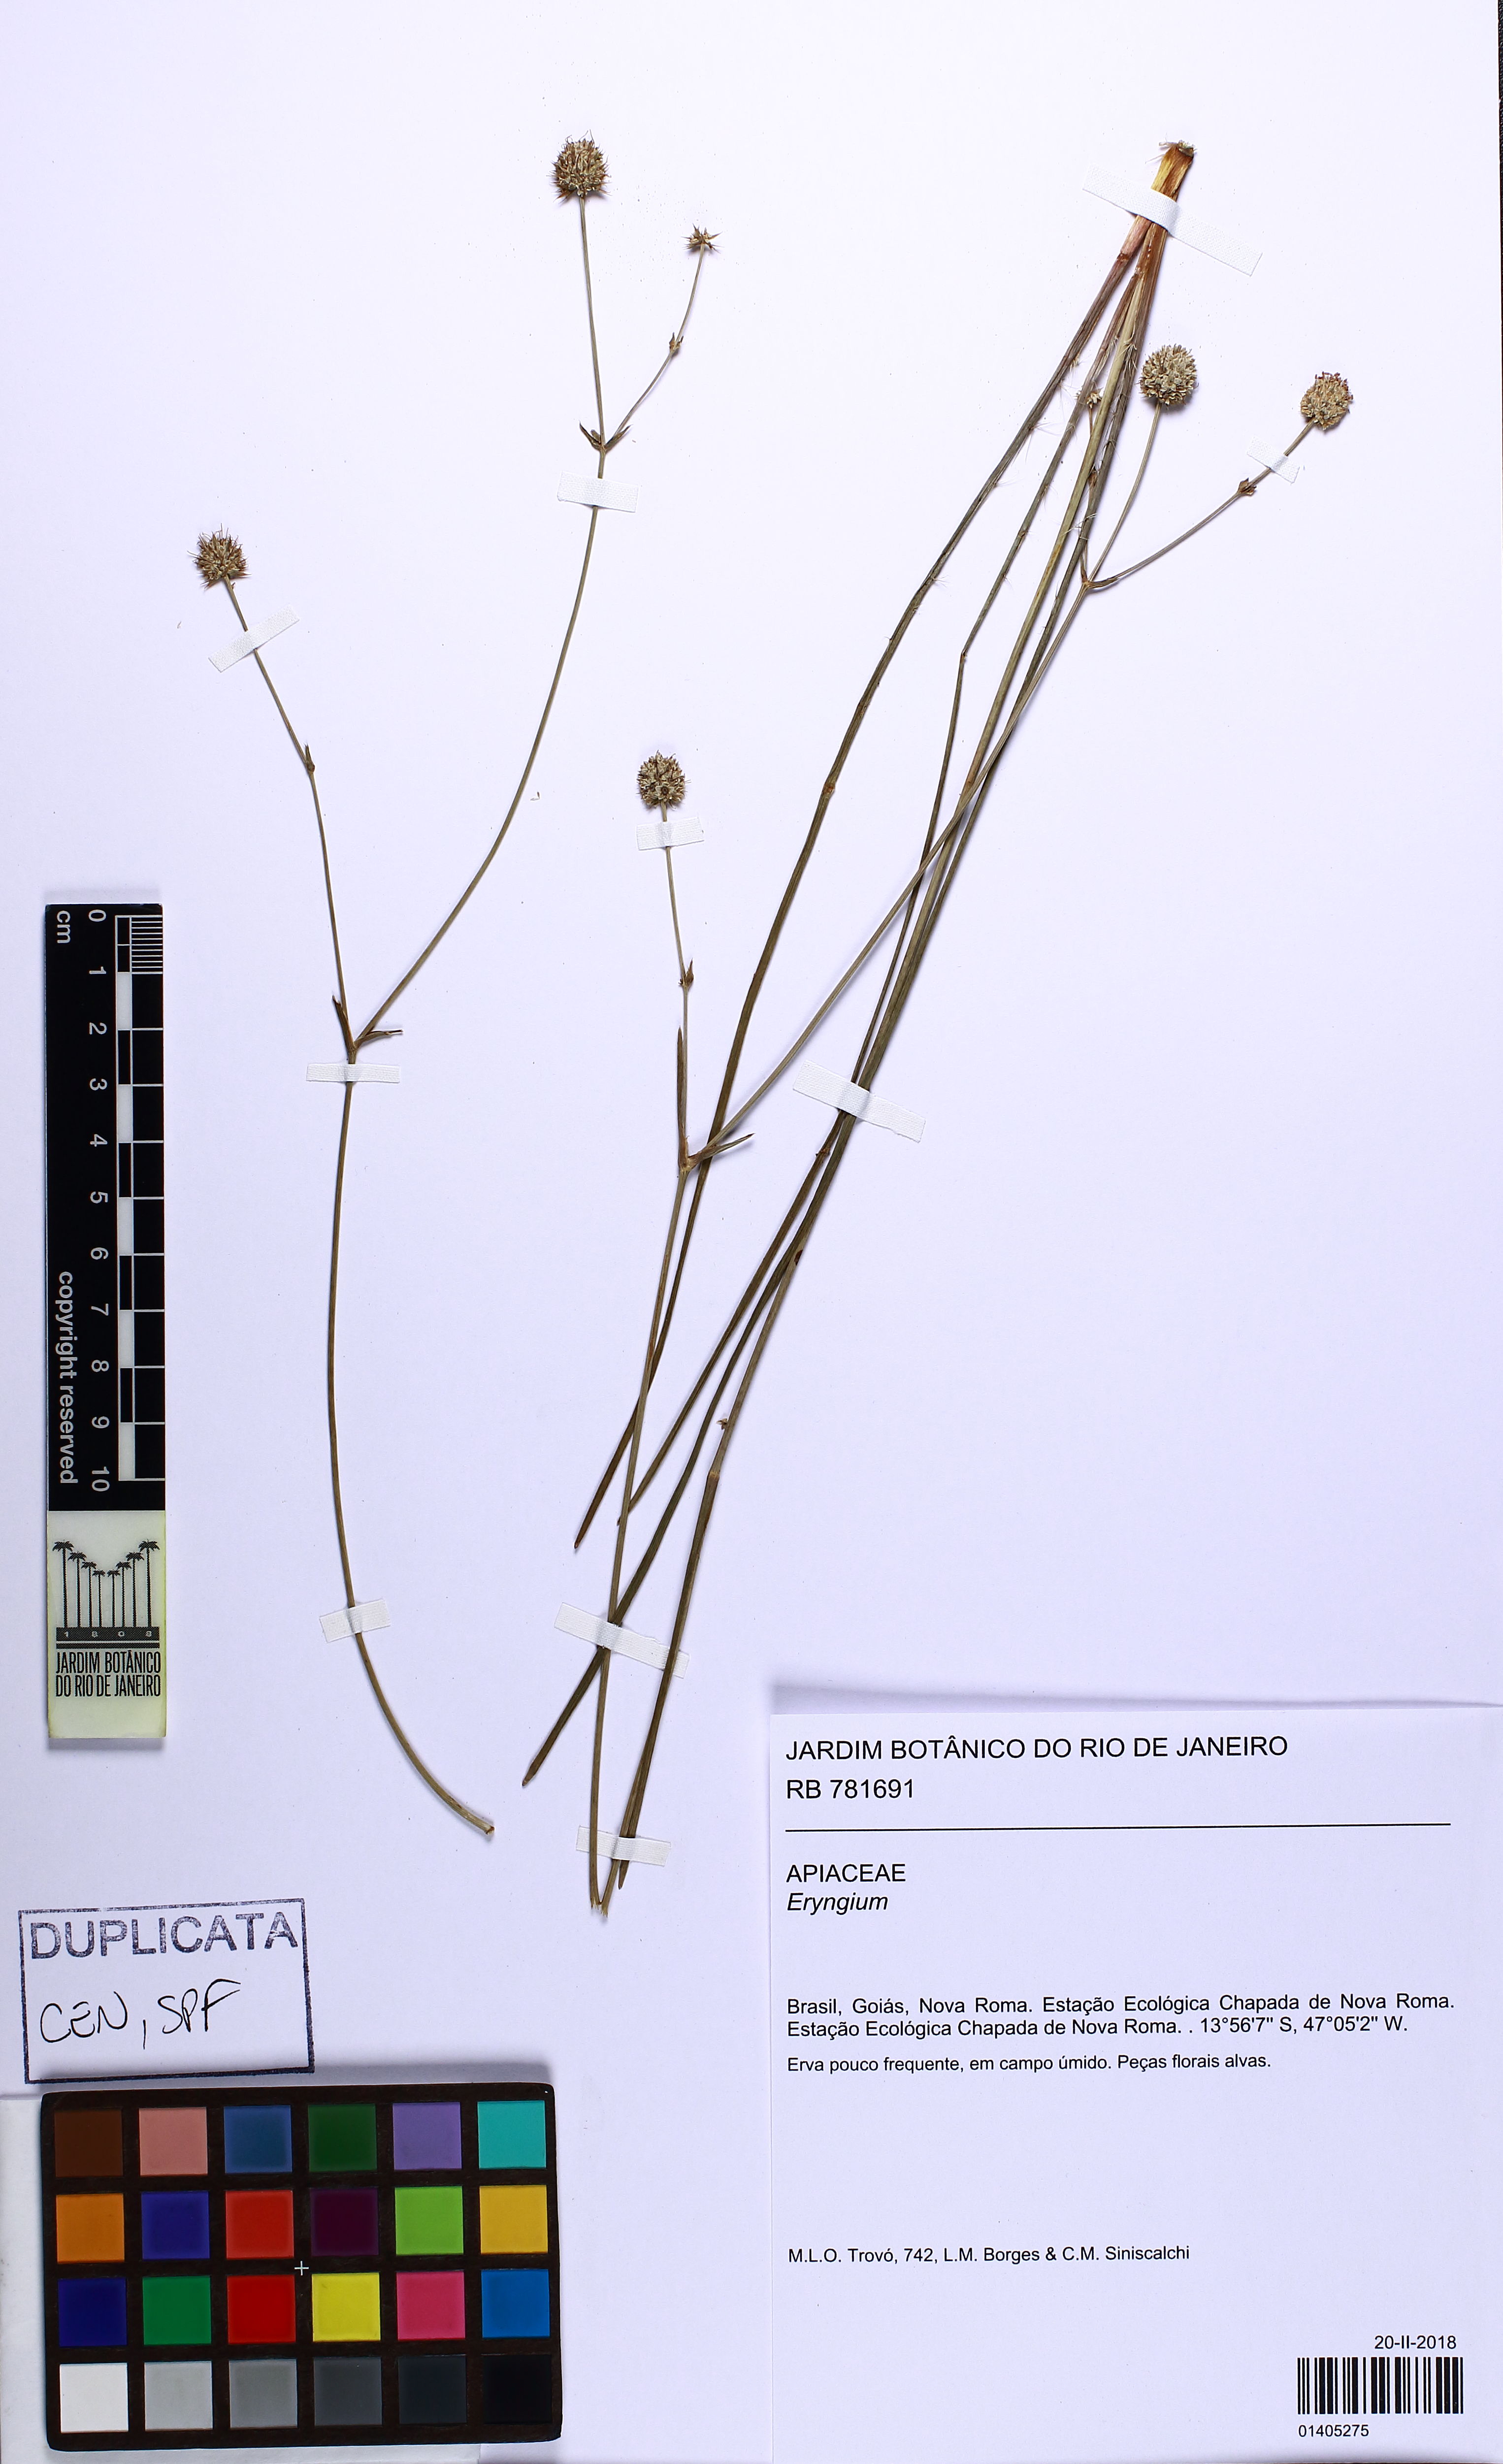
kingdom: Plantae
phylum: Tracheophyta
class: Magnoliopsida
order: Apiales
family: Apiaceae
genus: Eryngium
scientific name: Eryngium
